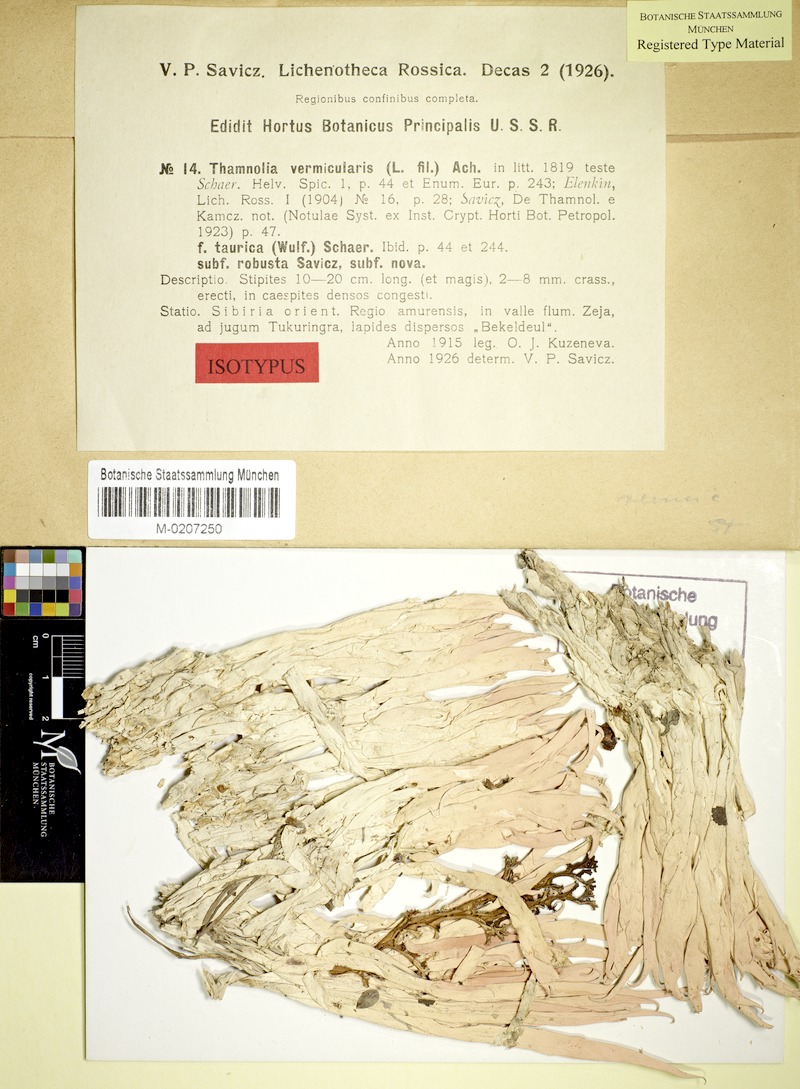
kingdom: Fungi
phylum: Ascomycota
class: Lecanoromycetes
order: Pertusariales
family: Icmadophilaceae
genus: Thamnolia
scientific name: Thamnolia vermicularis
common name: Whiteworm lichen
